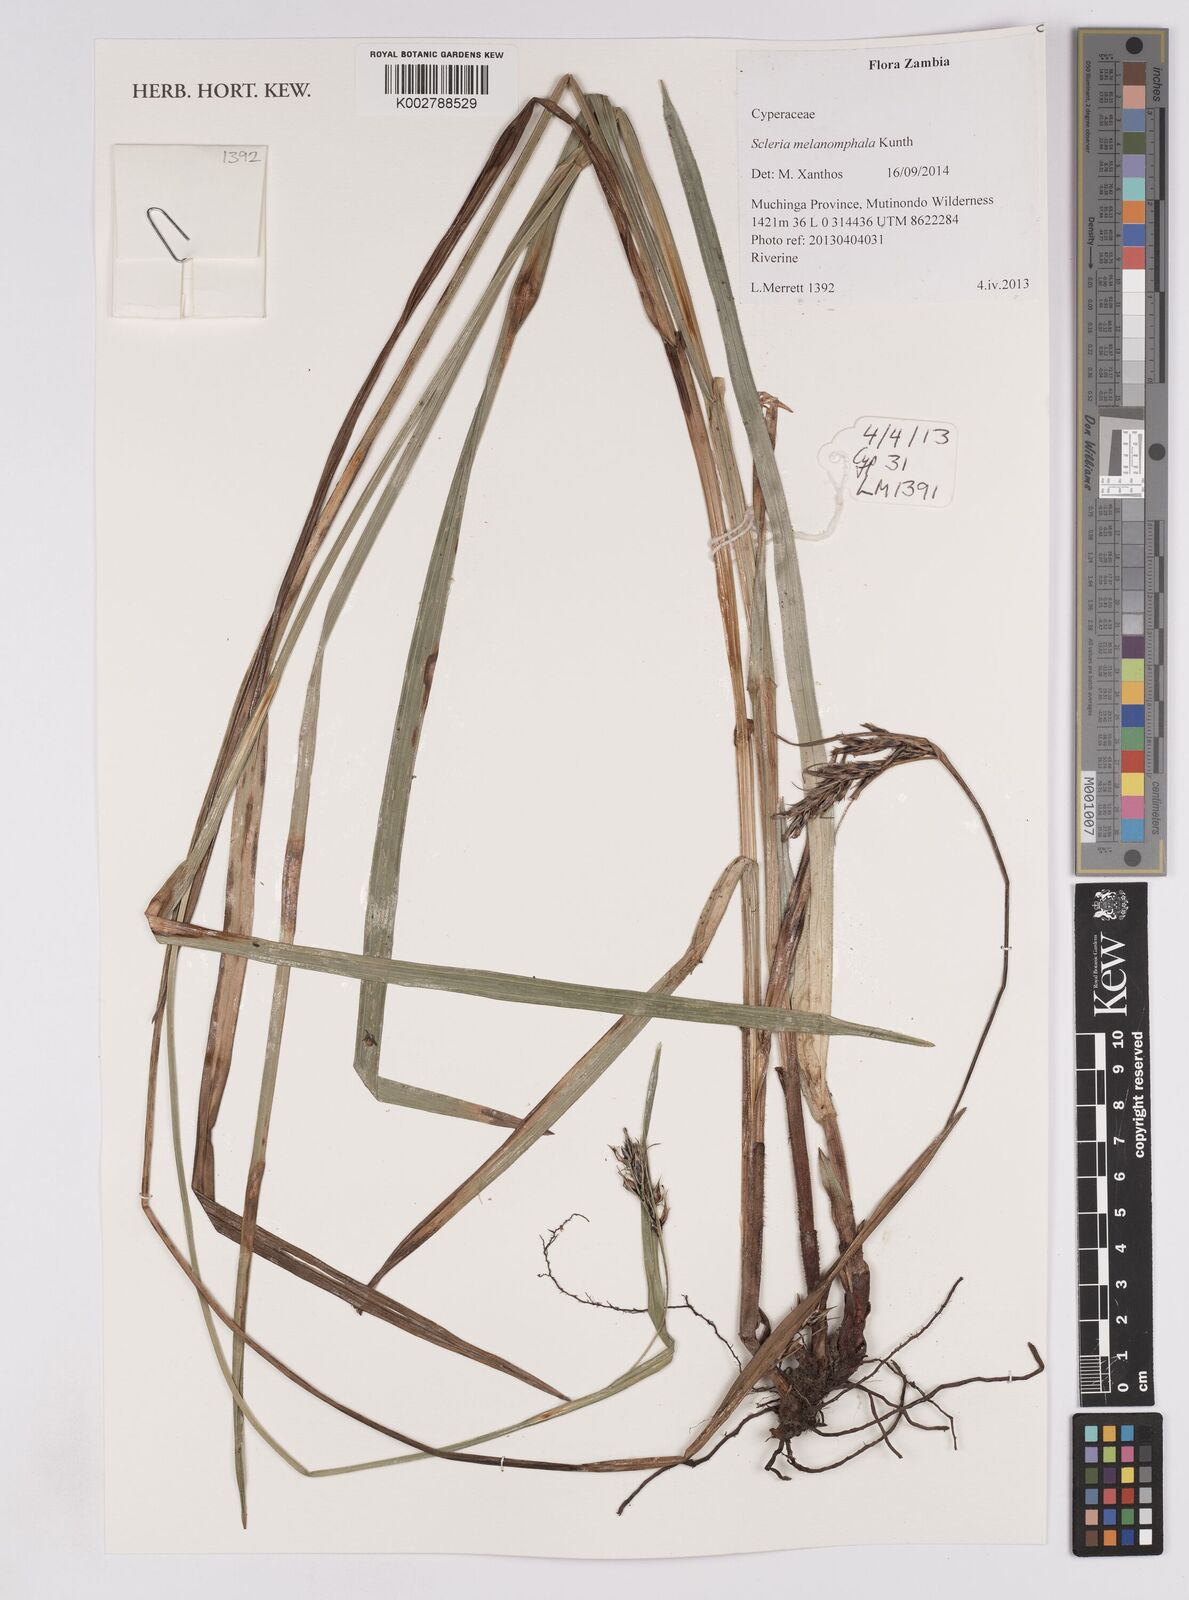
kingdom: Plantae
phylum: Tracheophyta
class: Liliopsida
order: Poales
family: Cyperaceae
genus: Scleria
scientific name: Scleria melanomphala
